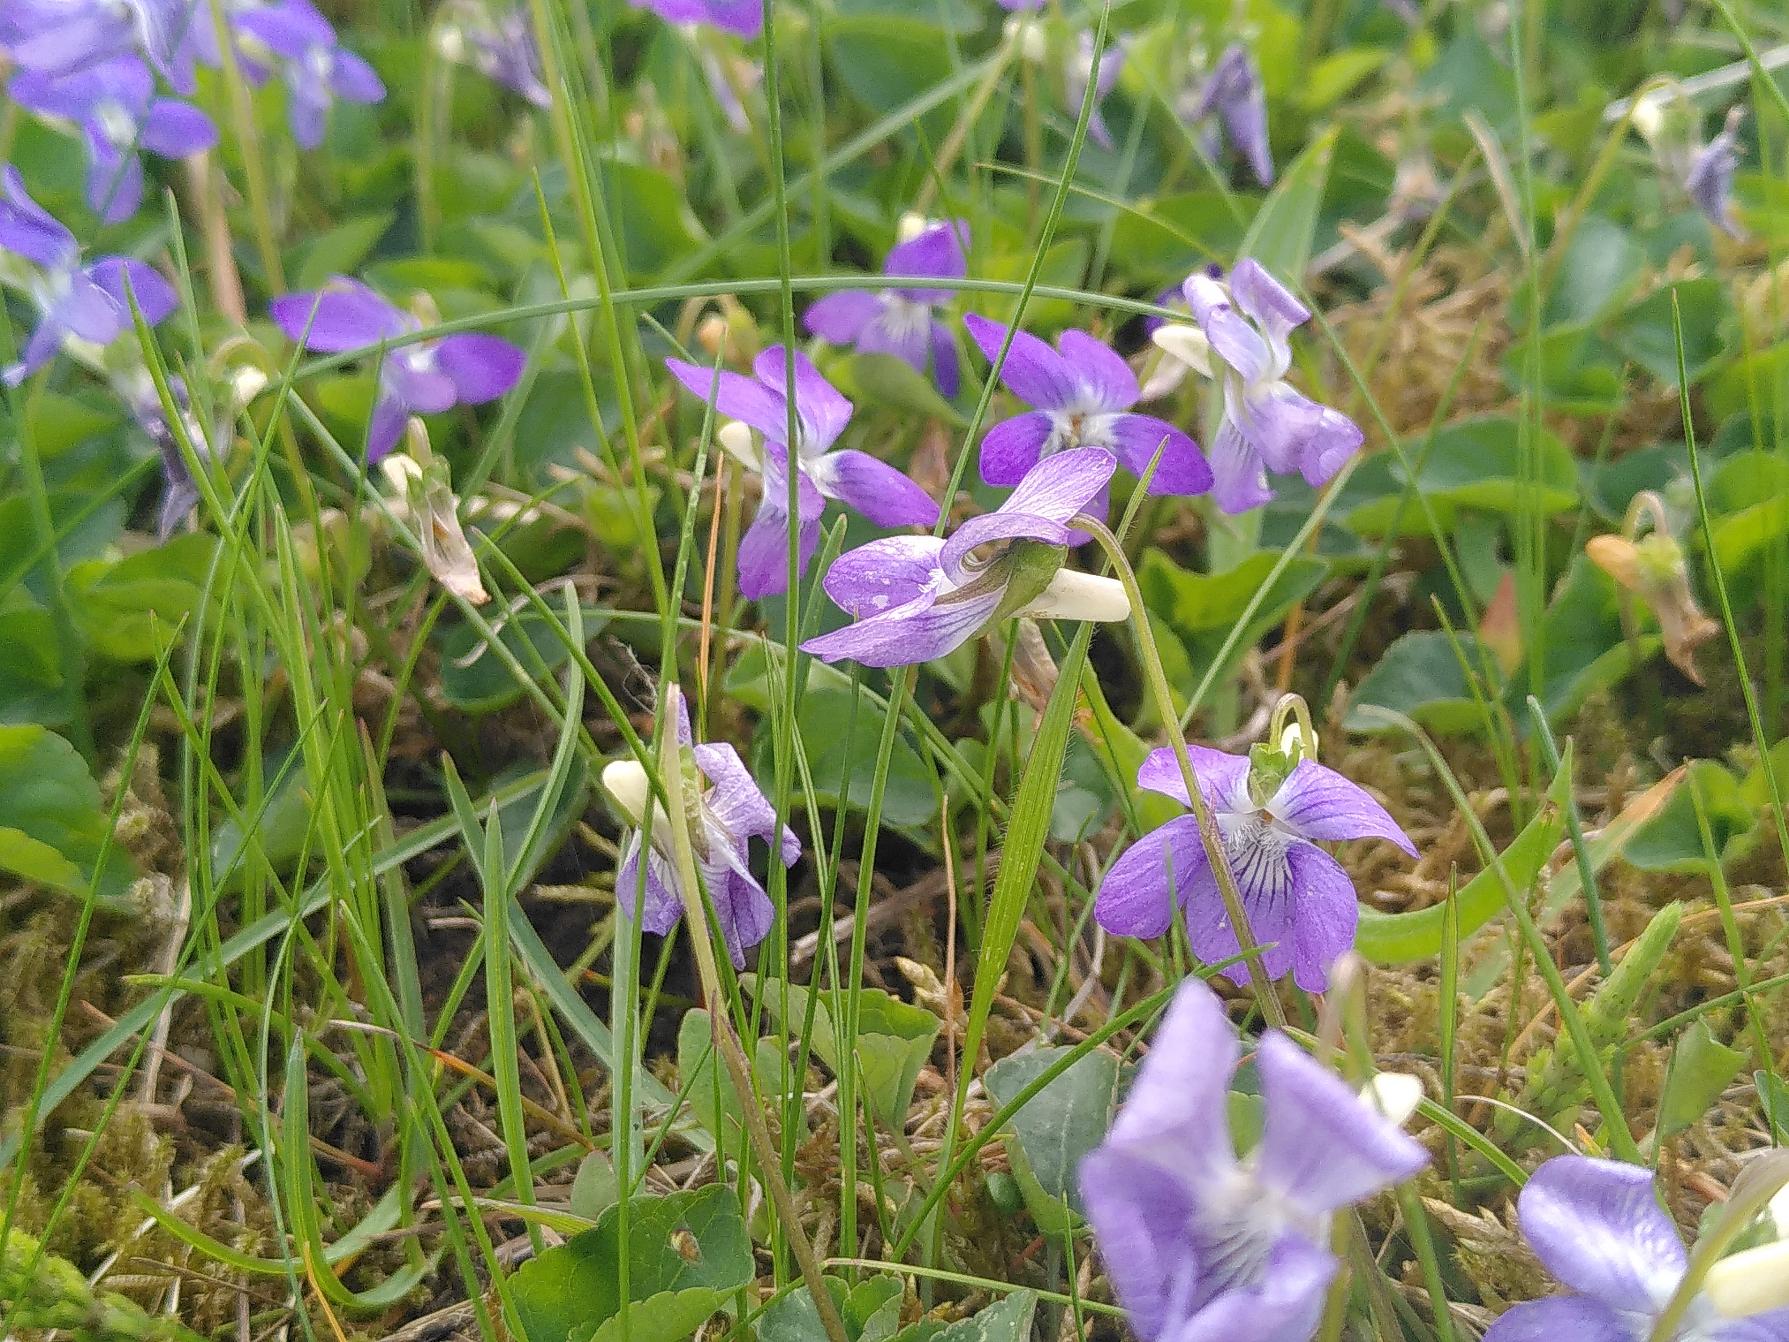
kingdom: Plantae
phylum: Tracheophyta
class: Magnoliopsida
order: Malpighiales
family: Violaceae
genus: Viola
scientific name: Viola riviniana
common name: Krat-viol
